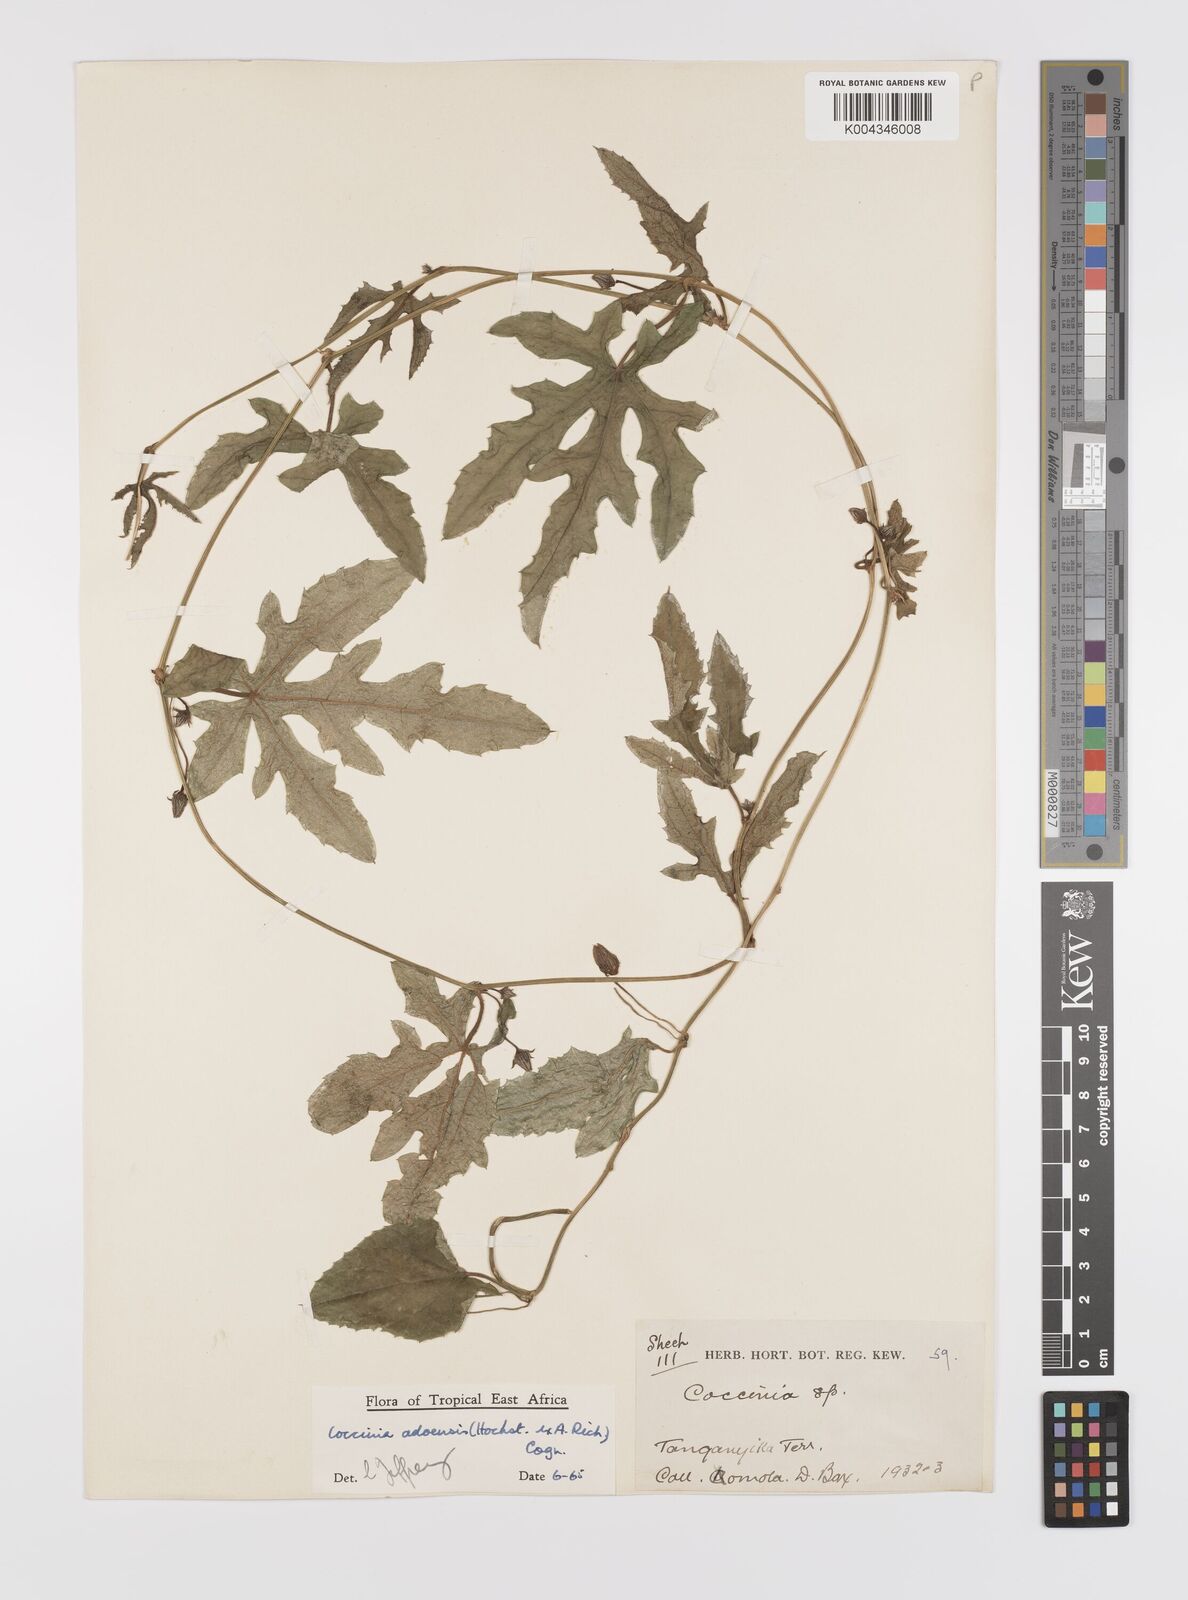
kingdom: Plantae
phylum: Tracheophyta
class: Magnoliopsida
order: Cucurbitales
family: Cucurbitaceae
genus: Coccinia
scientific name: Coccinia adoensis
